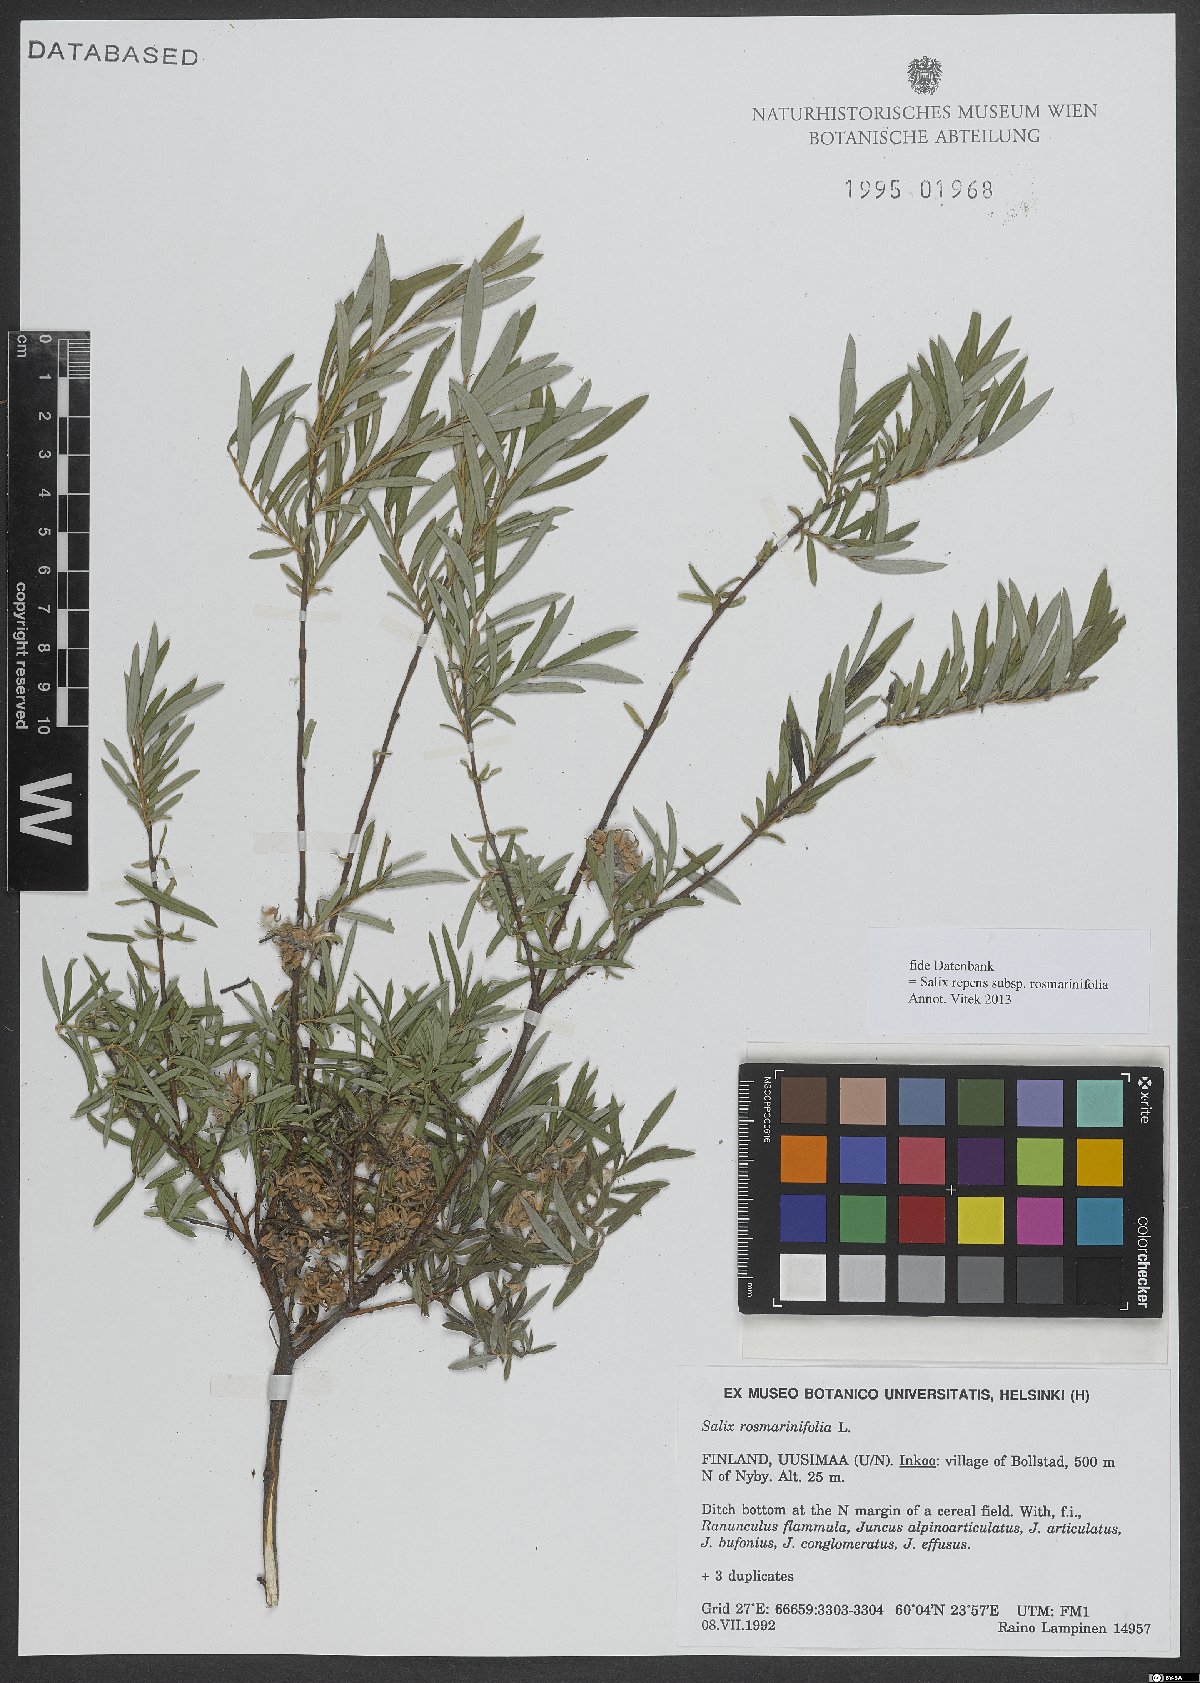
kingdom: Plantae
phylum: Tracheophyta
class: Magnoliopsida
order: Malpighiales
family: Salicaceae
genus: Salix
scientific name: Salix repens
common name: Creeping willow
